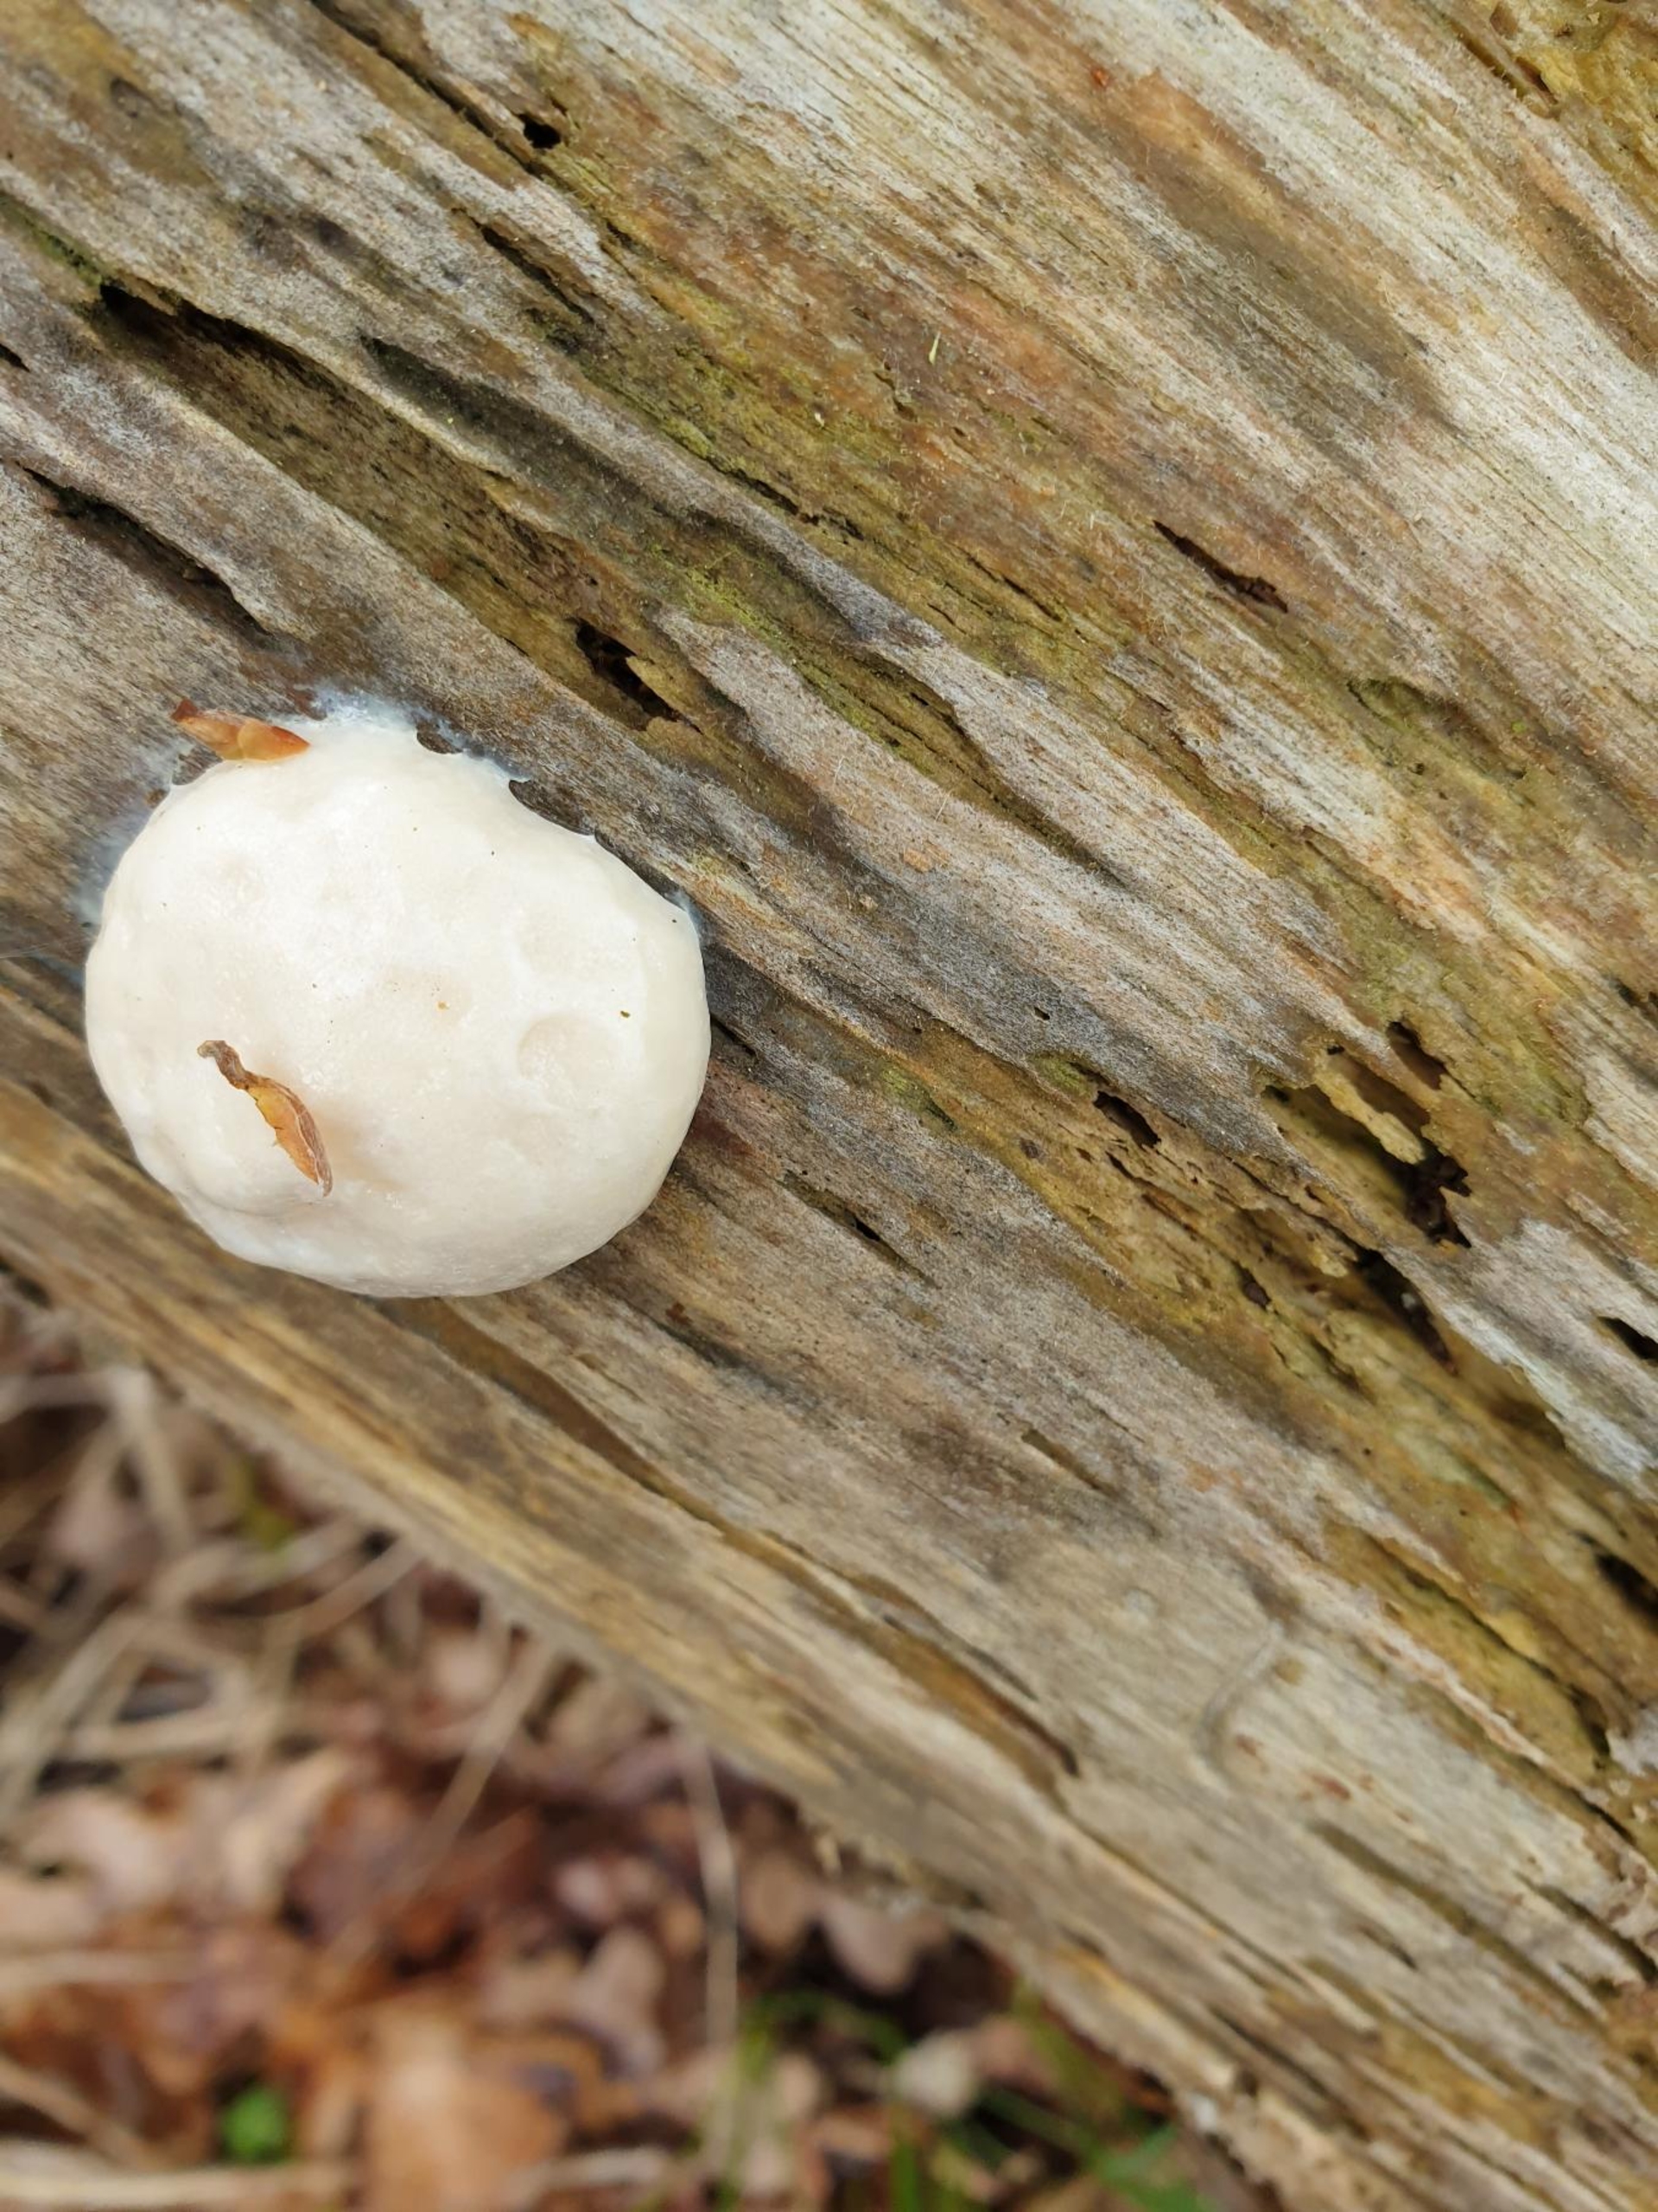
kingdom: Protozoa
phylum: Mycetozoa
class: Myxomycetes
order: Cribrariales
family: Tubiferaceae
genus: Reticularia
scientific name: Reticularia lycoperdon
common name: Skinnende støvpude
